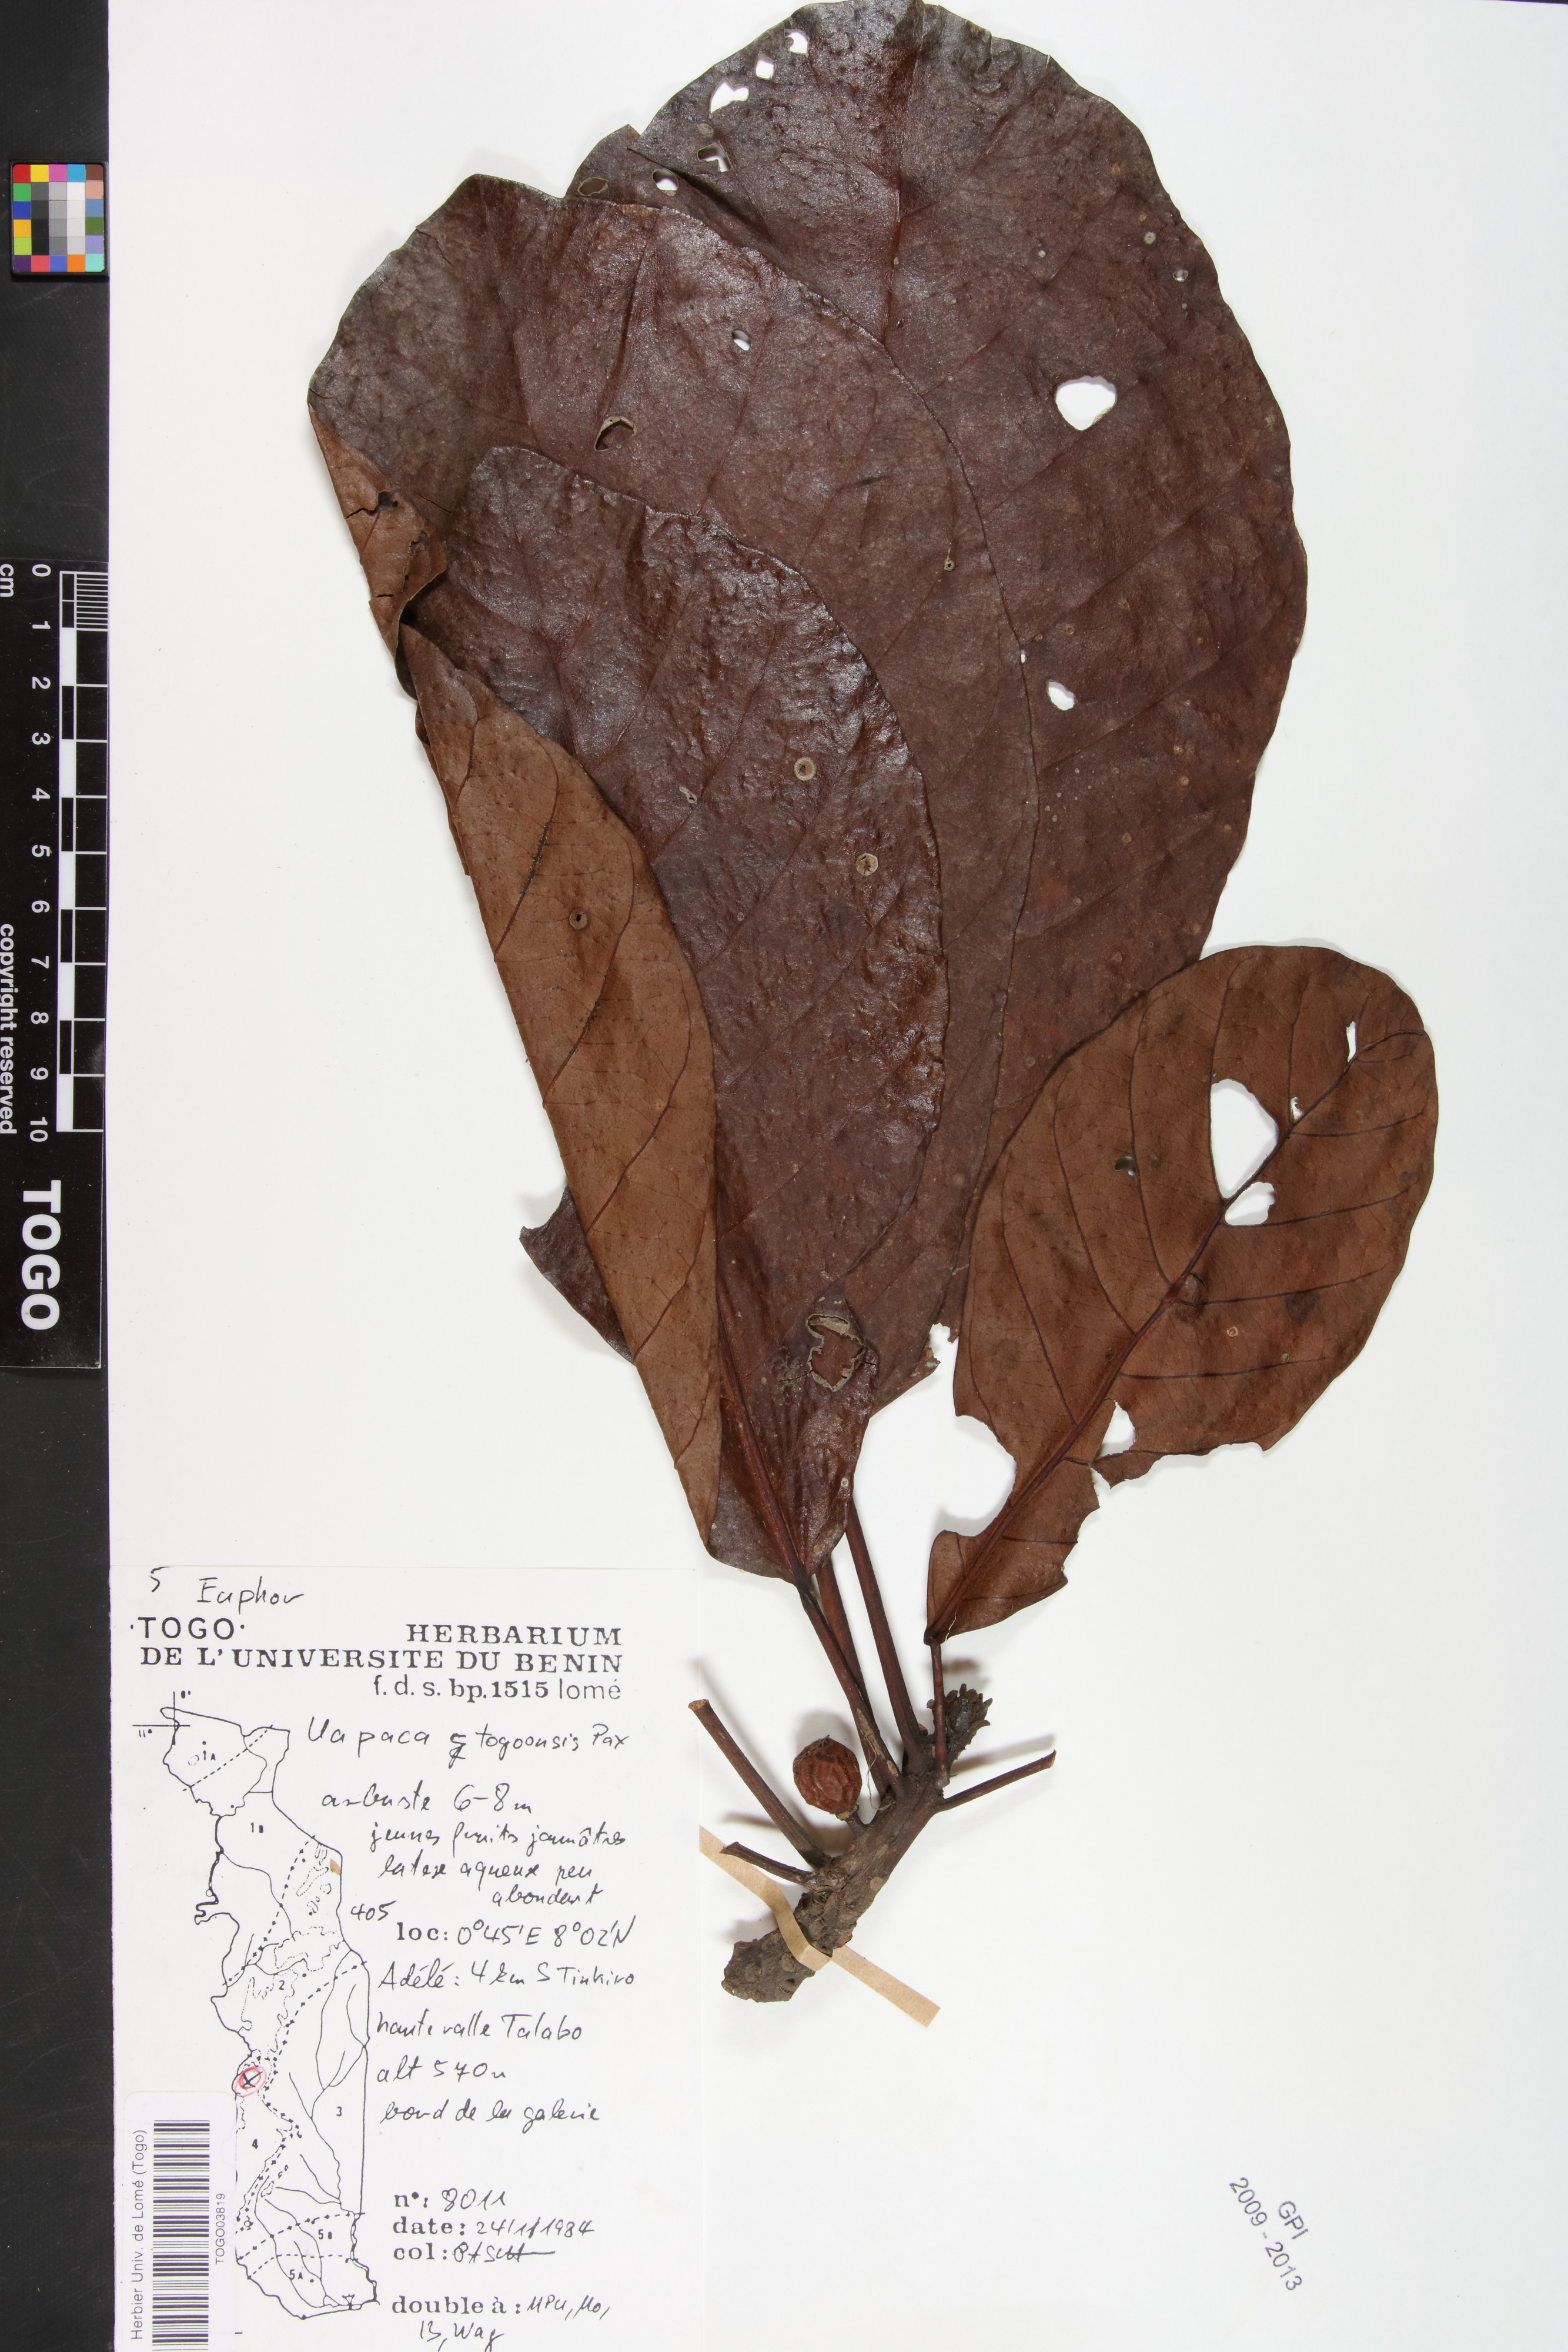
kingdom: Plantae
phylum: Tracheophyta
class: Magnoliopsida
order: Malpighiales
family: Phyllanthaceae
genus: Uapaca
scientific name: Uapaca togoensis
